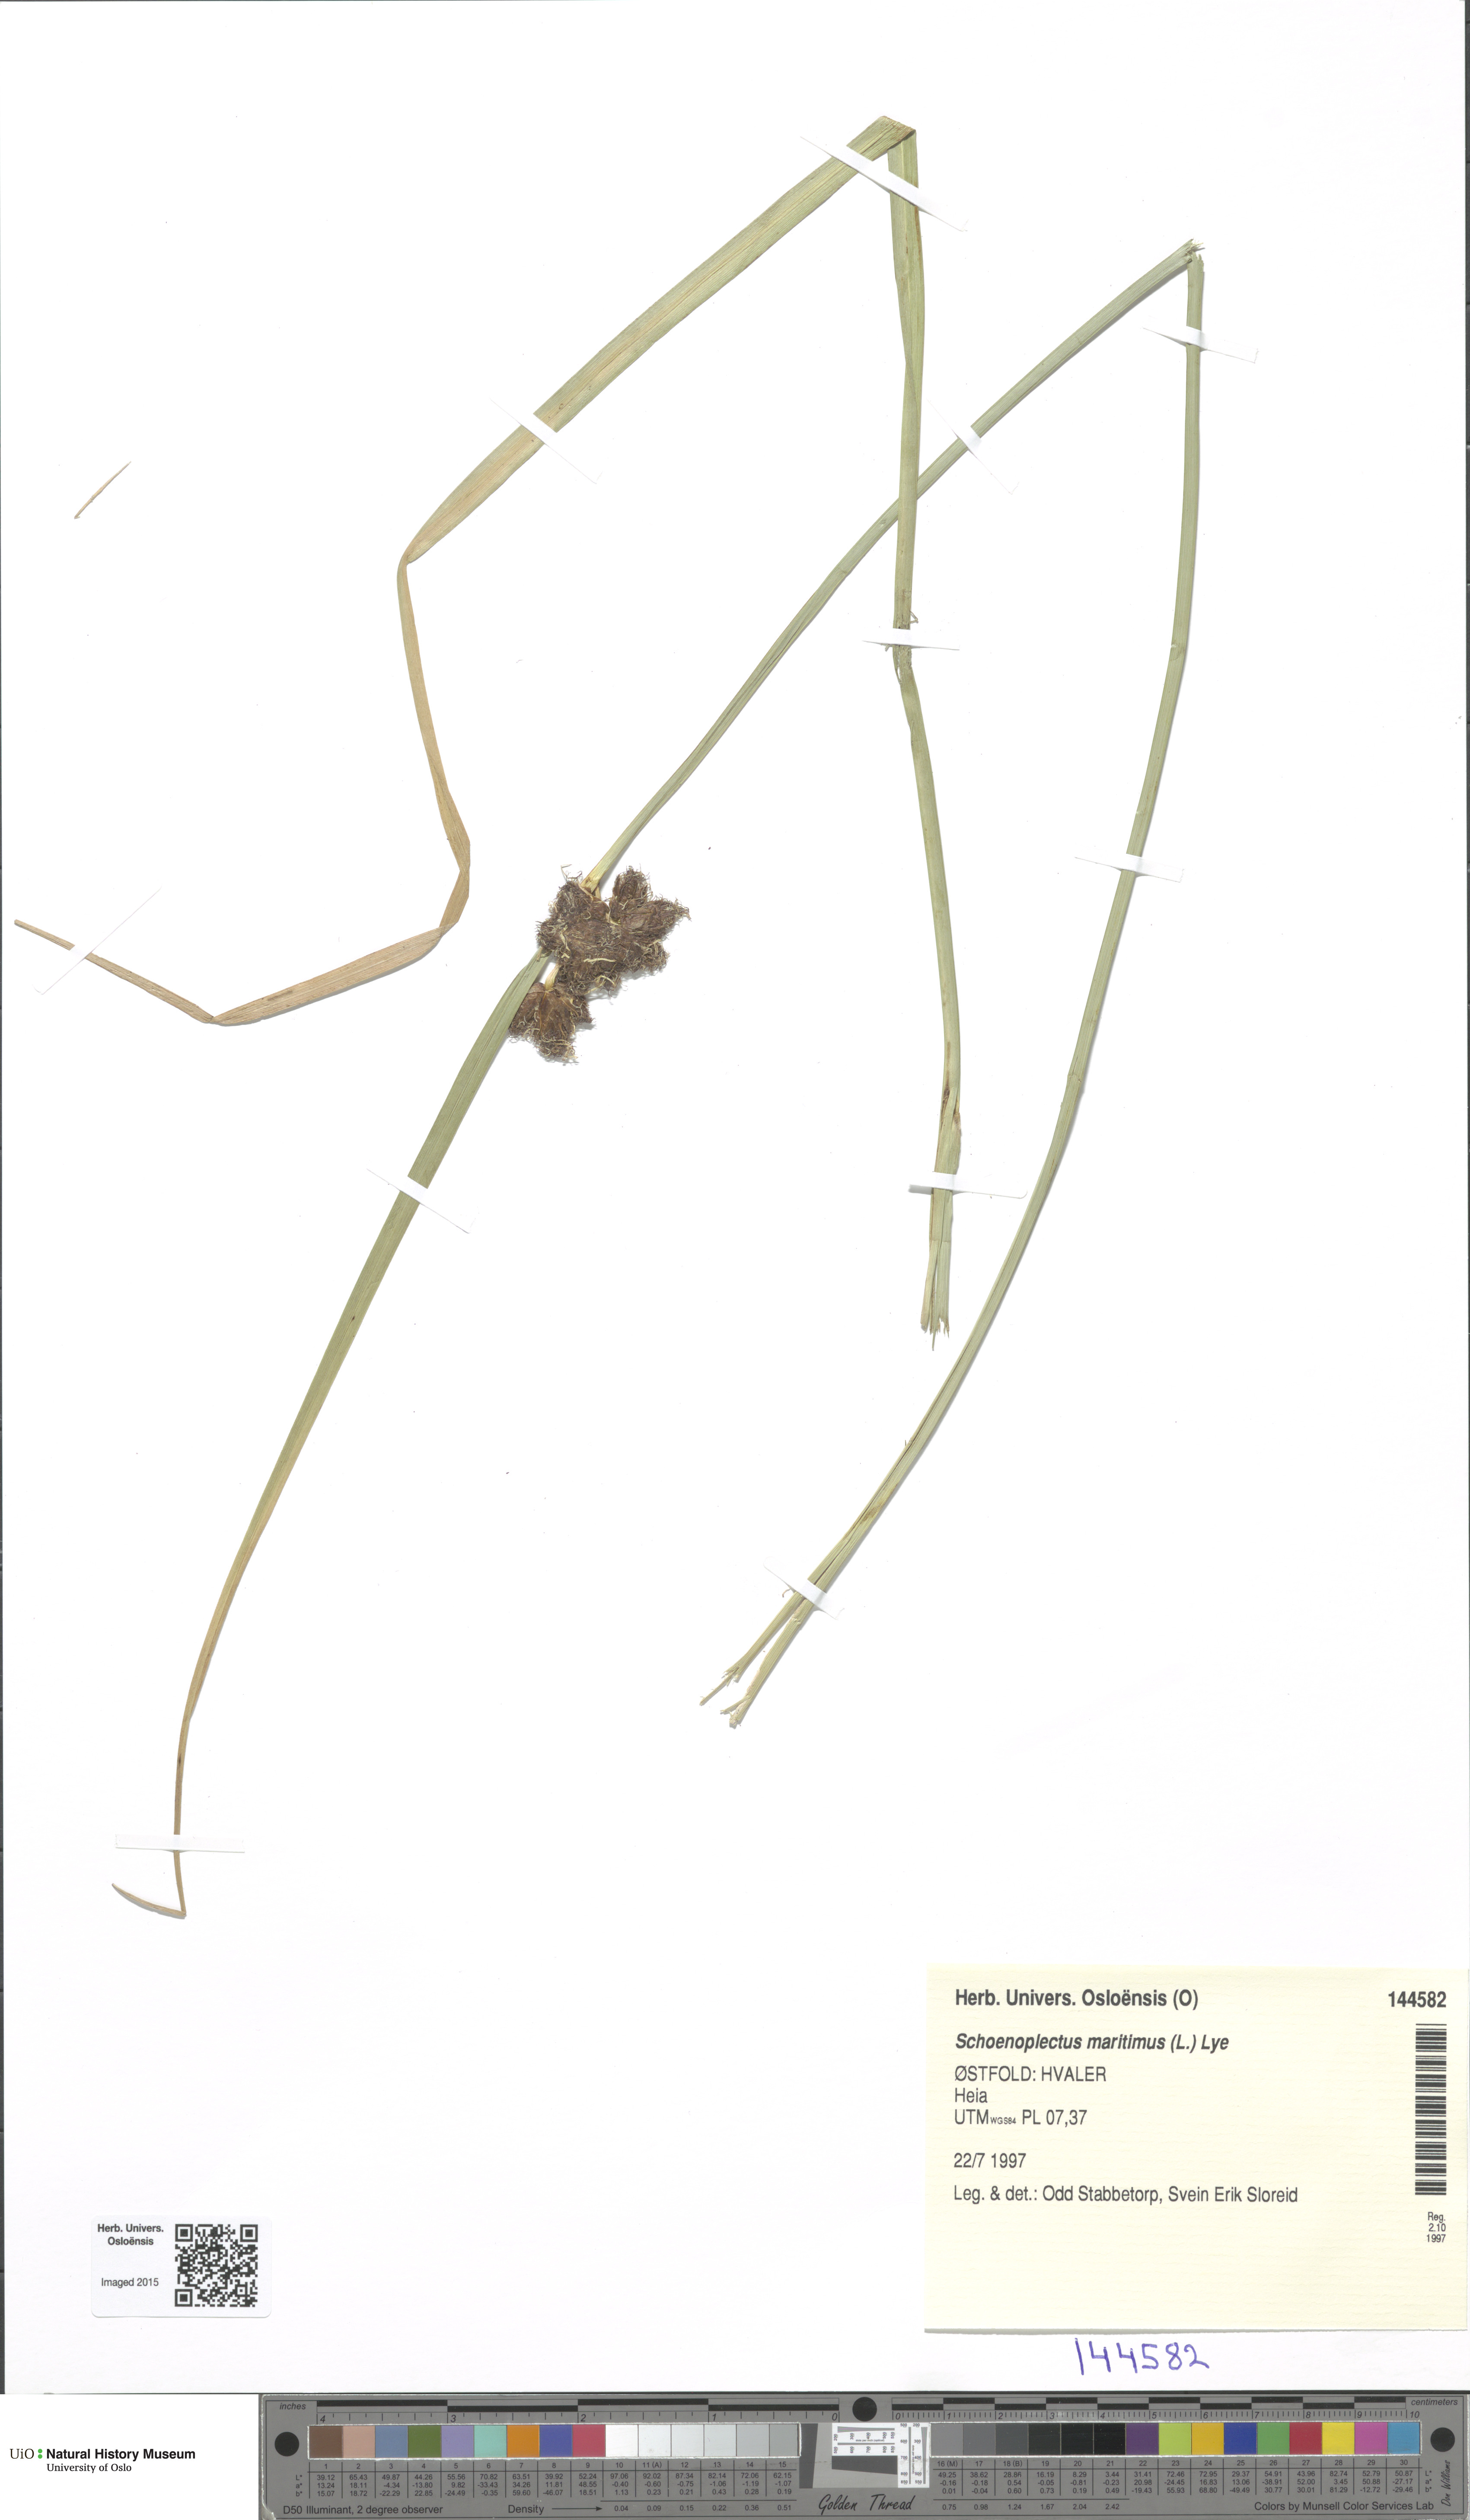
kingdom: Plantae
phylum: Tracheophyta
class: Liliopsida
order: Poales
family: Cyperaceae
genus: Bolboschoenus
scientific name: Bolboschoenus maritimus
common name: Sea club-rush
